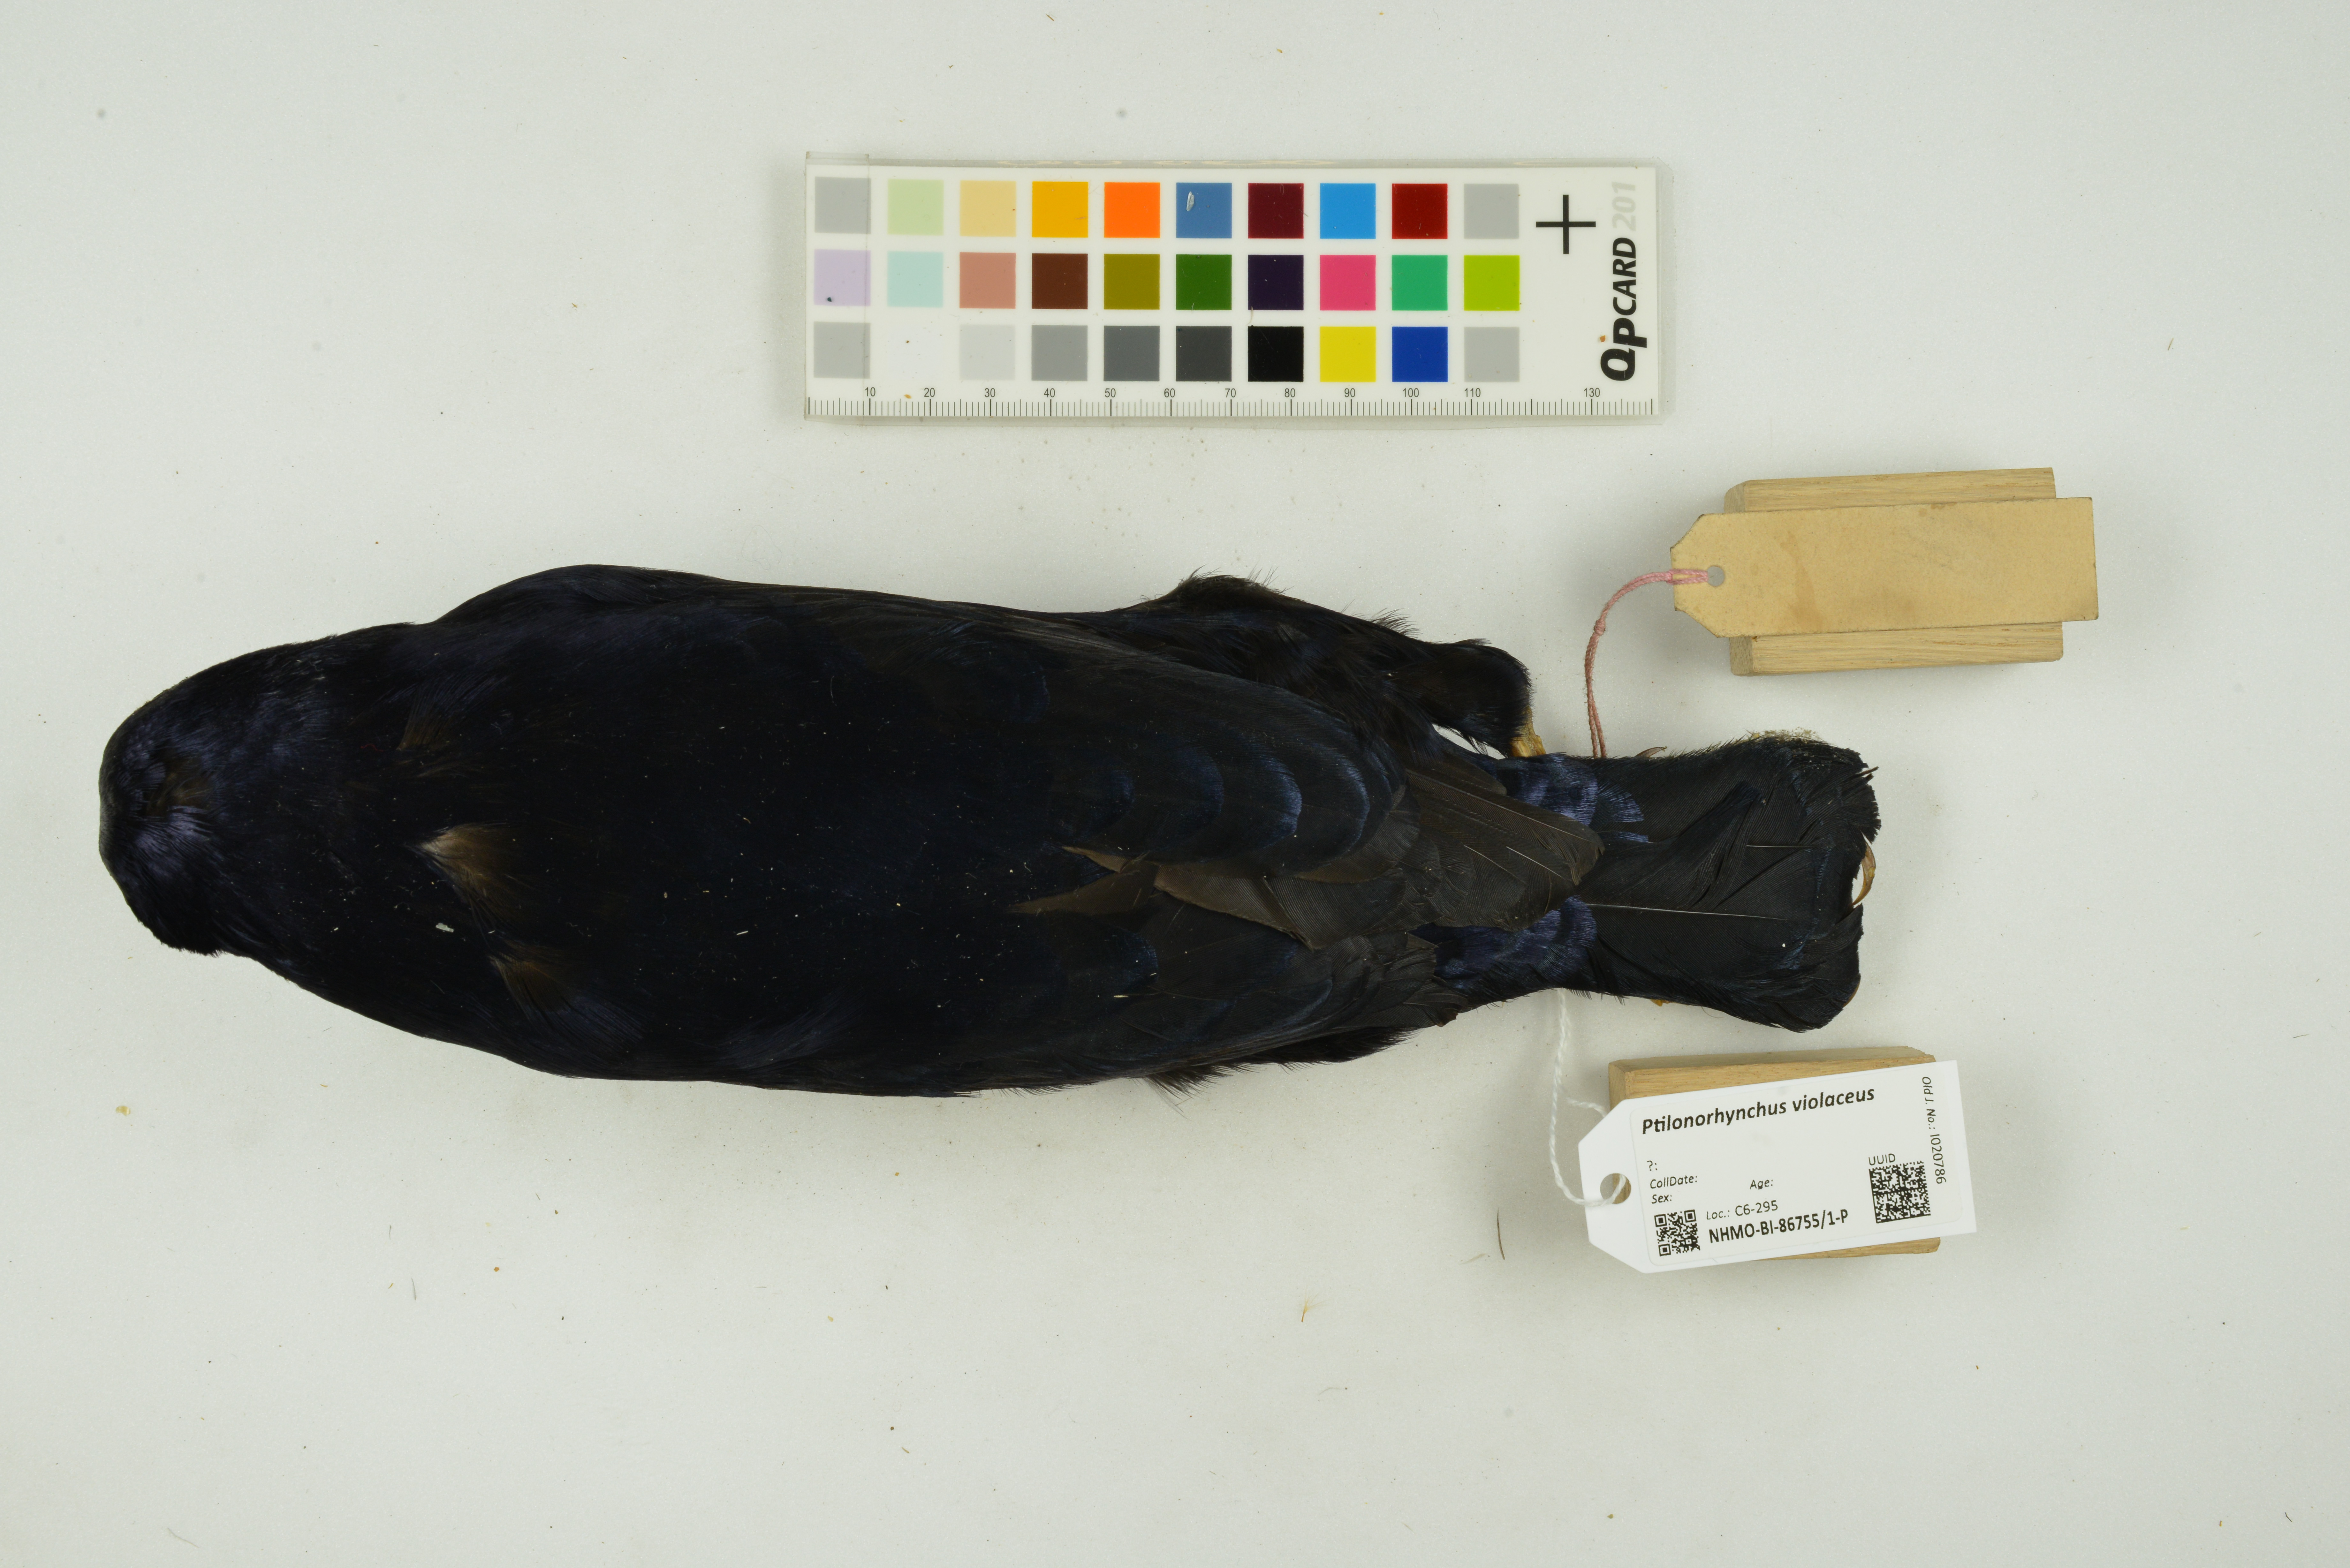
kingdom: Animalia
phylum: Chordata
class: Aves
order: Passeriformes
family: Ptilonorhynchidae
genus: Ptilonorhynchus
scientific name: Ptilonorhynchus violaceus
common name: Satin bowerbird
